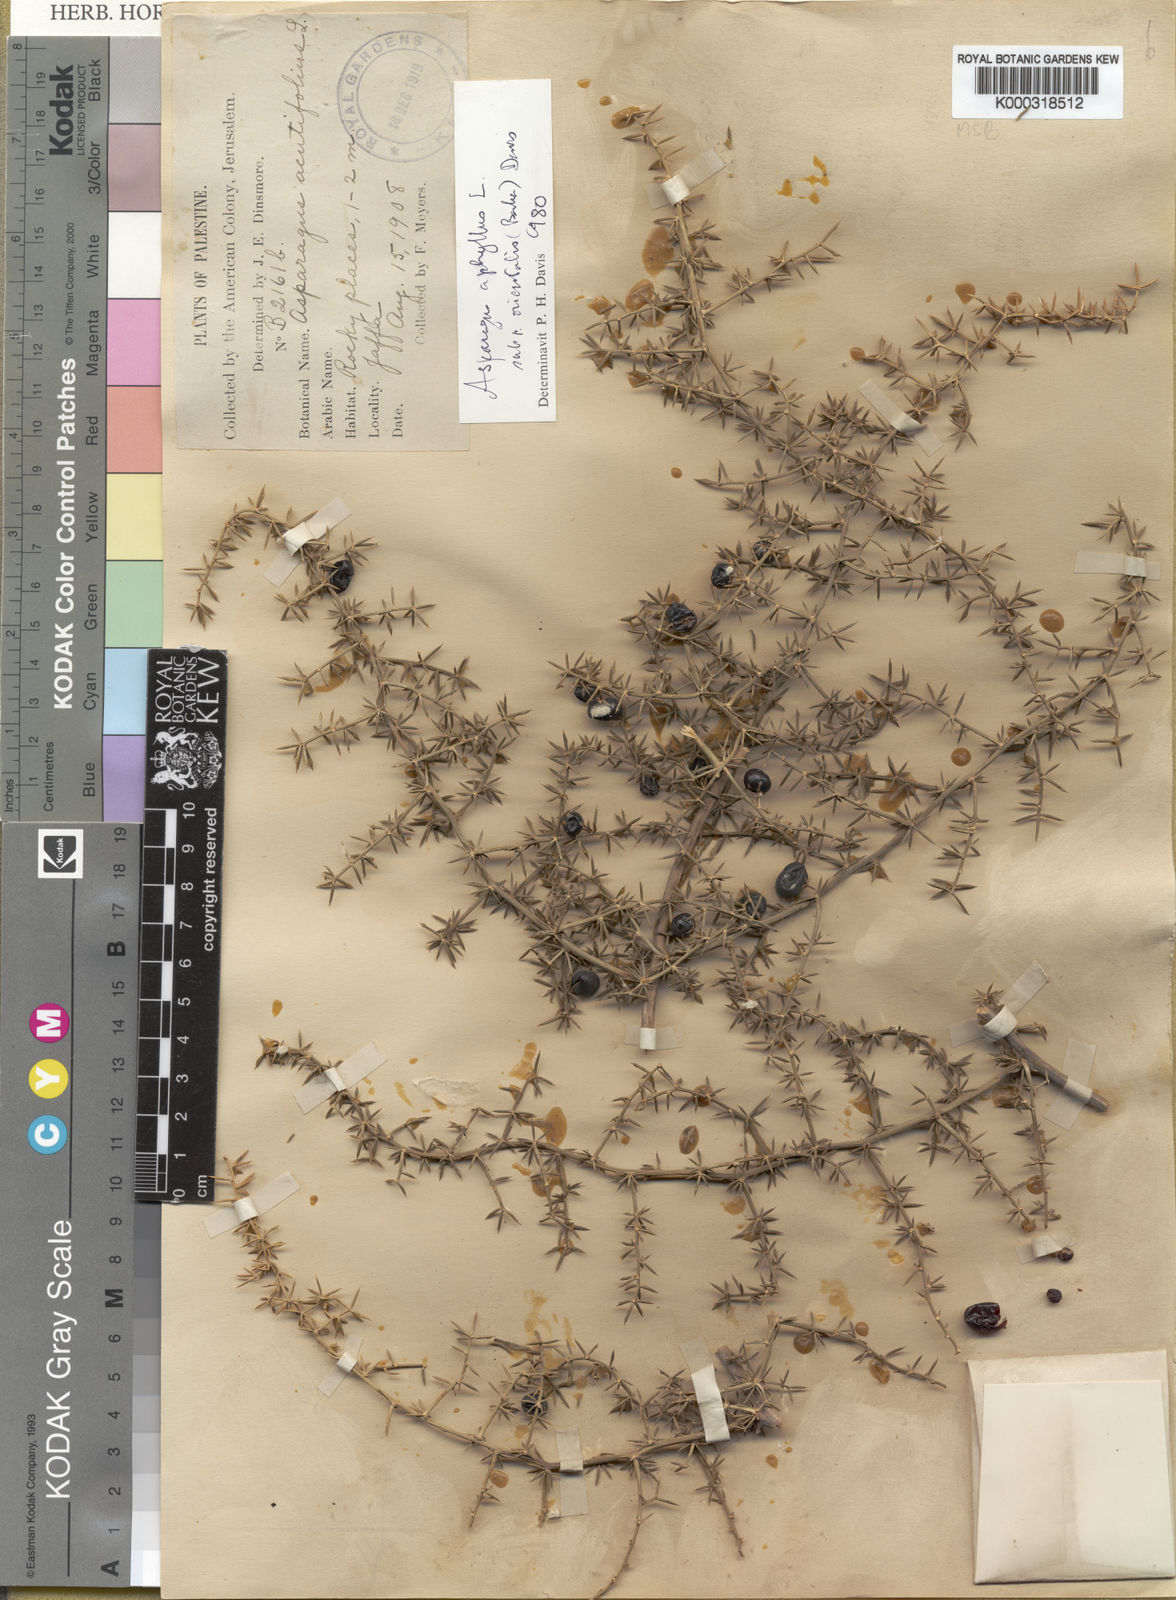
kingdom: Plantae
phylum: Tracheophyta
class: Liliopsida
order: Asparagales
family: Asparagaceae
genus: Asparagus
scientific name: Asparagus aphyllus
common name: Mediterranean asparagus
